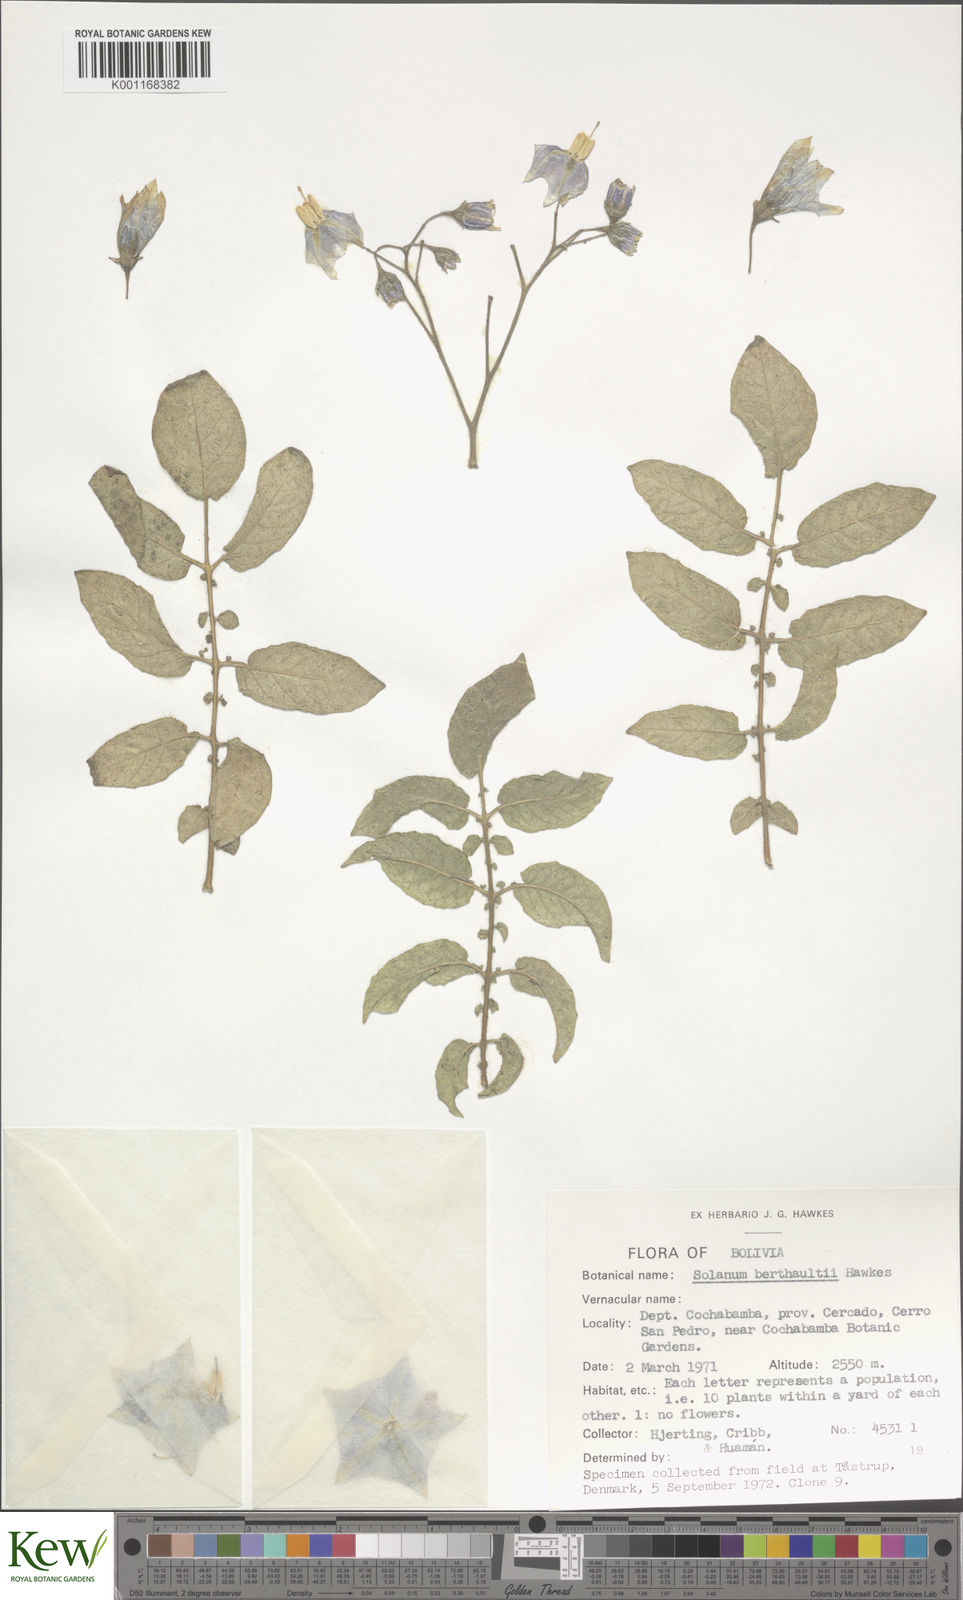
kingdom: Plantae
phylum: Tracheophyta
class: Magnoliopsida
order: Solanales
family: Solanaceae
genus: Solanum
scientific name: Solanum berthaultii
